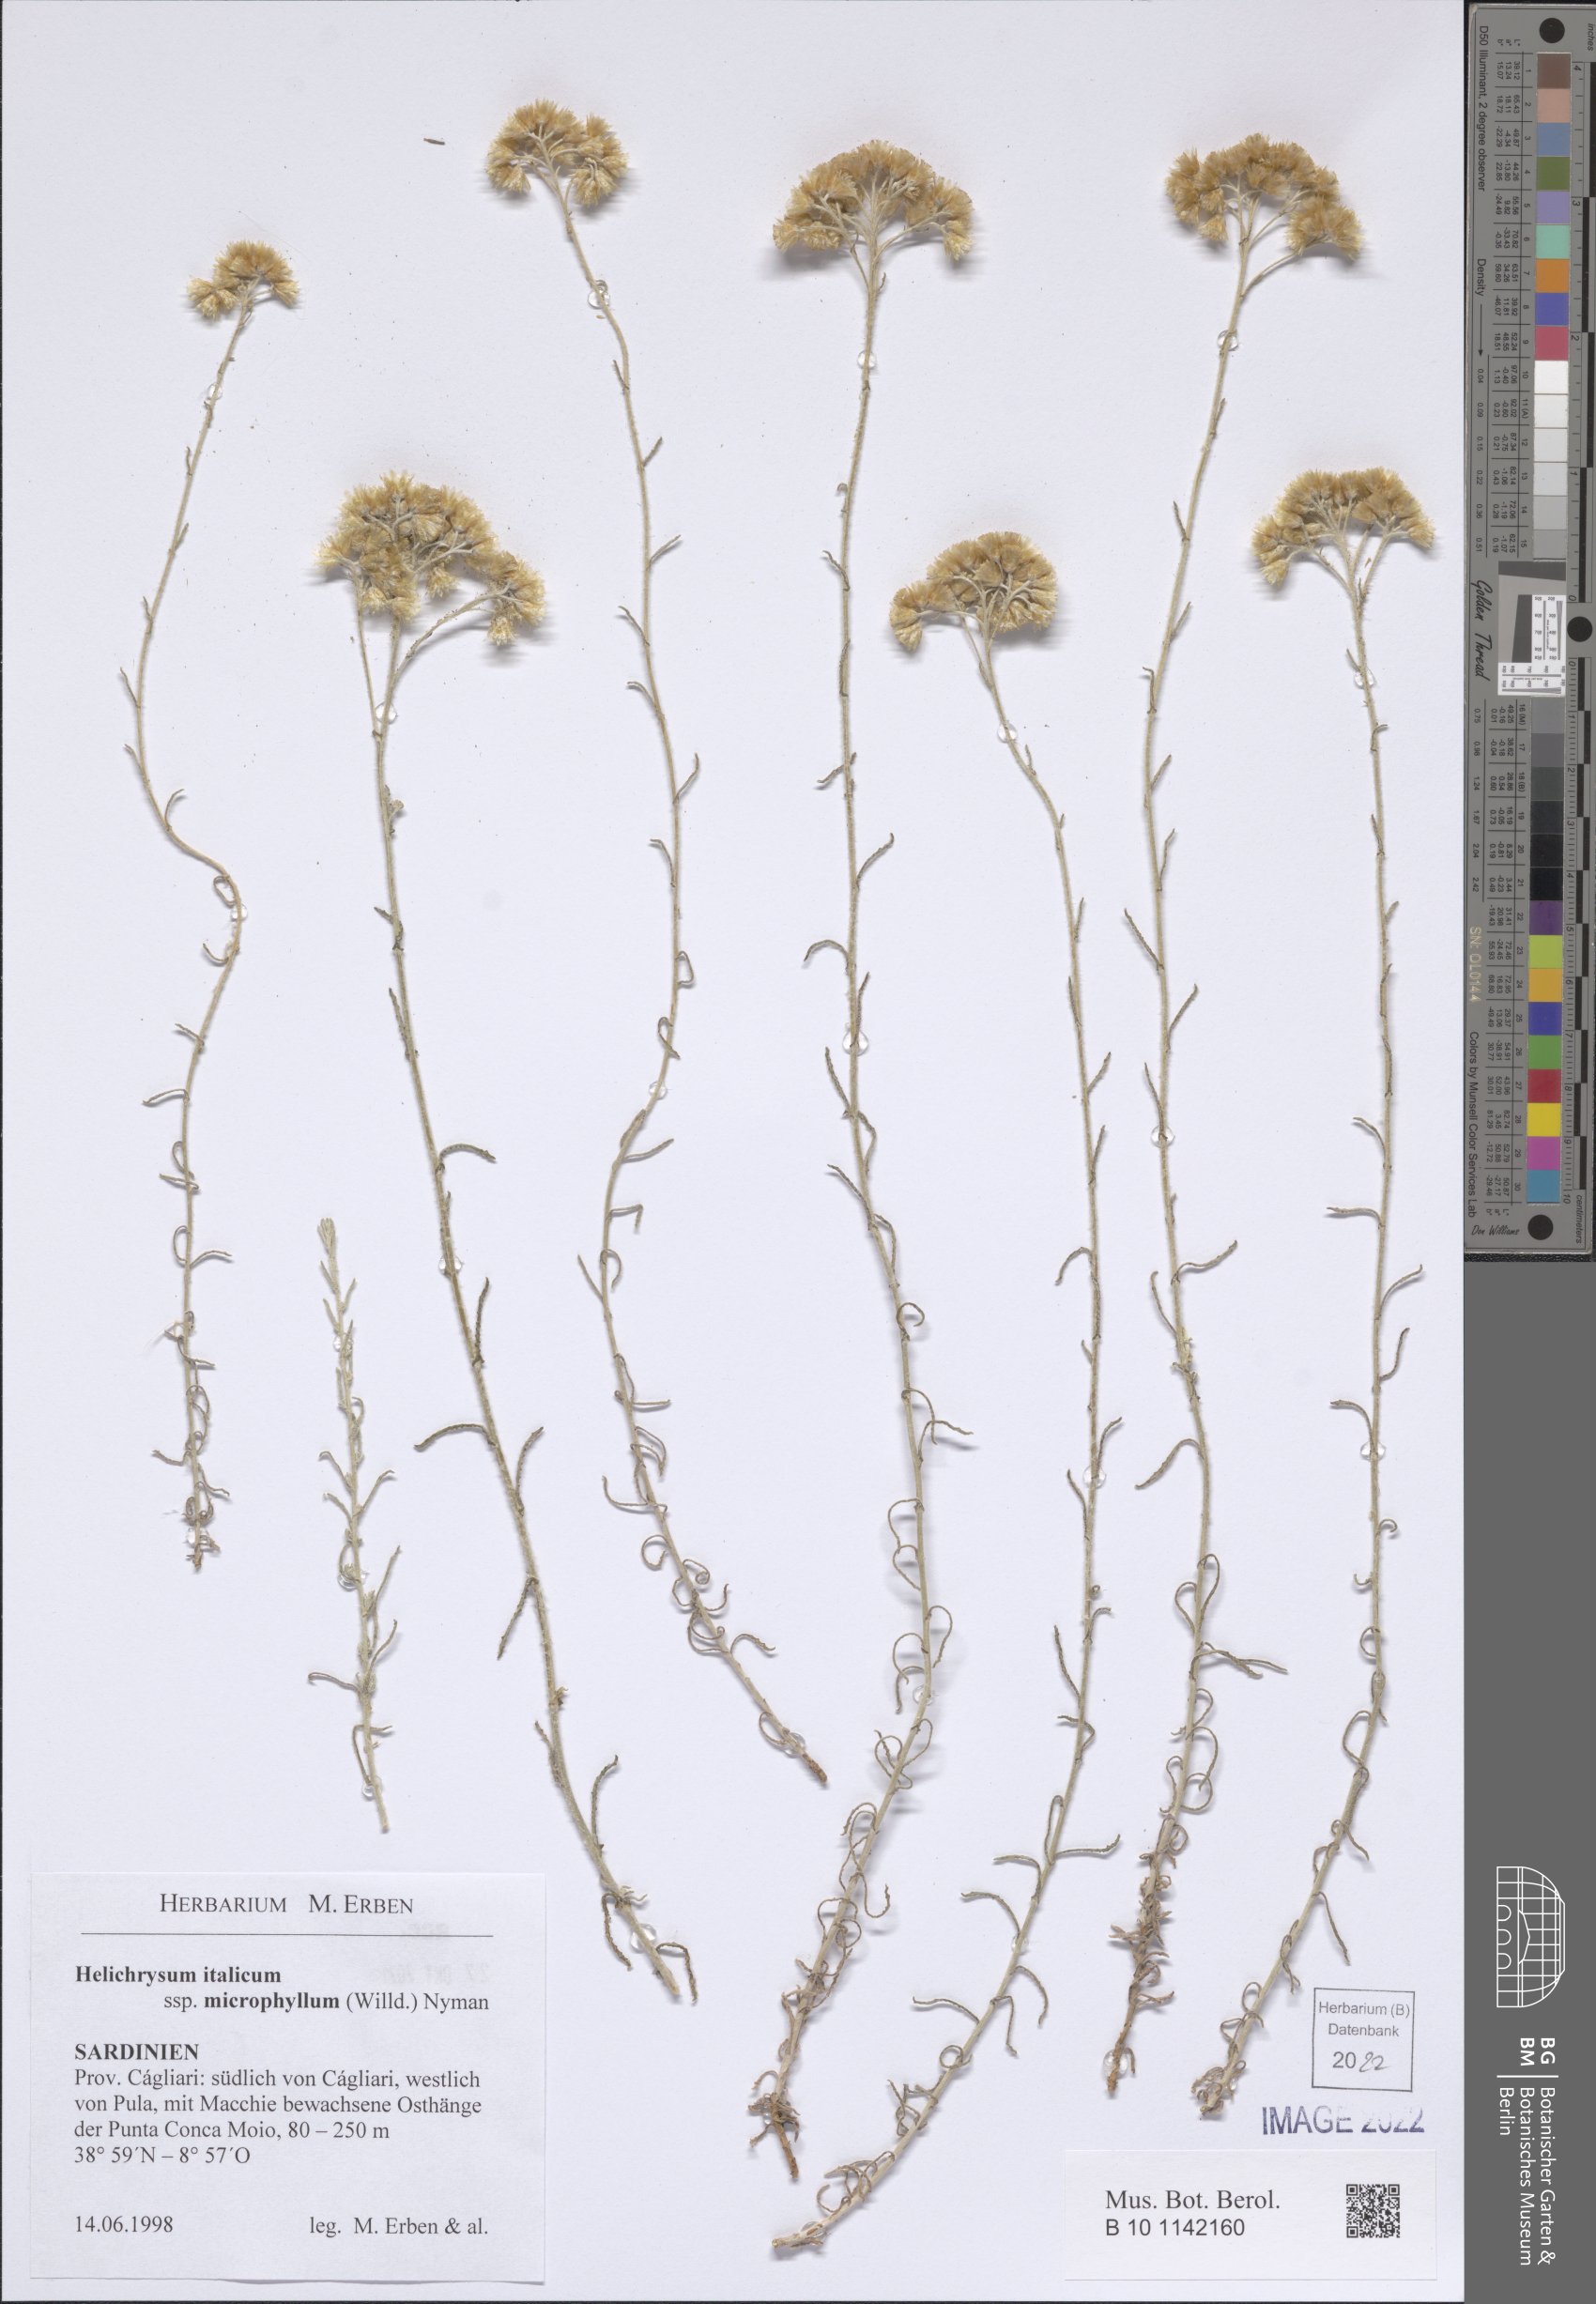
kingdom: Plantae
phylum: Tracheophyta
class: Magnoliopsida
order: Asterales
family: Asteraceae
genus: Helichrysum
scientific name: Helichrysum italicum
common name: Curryplant
